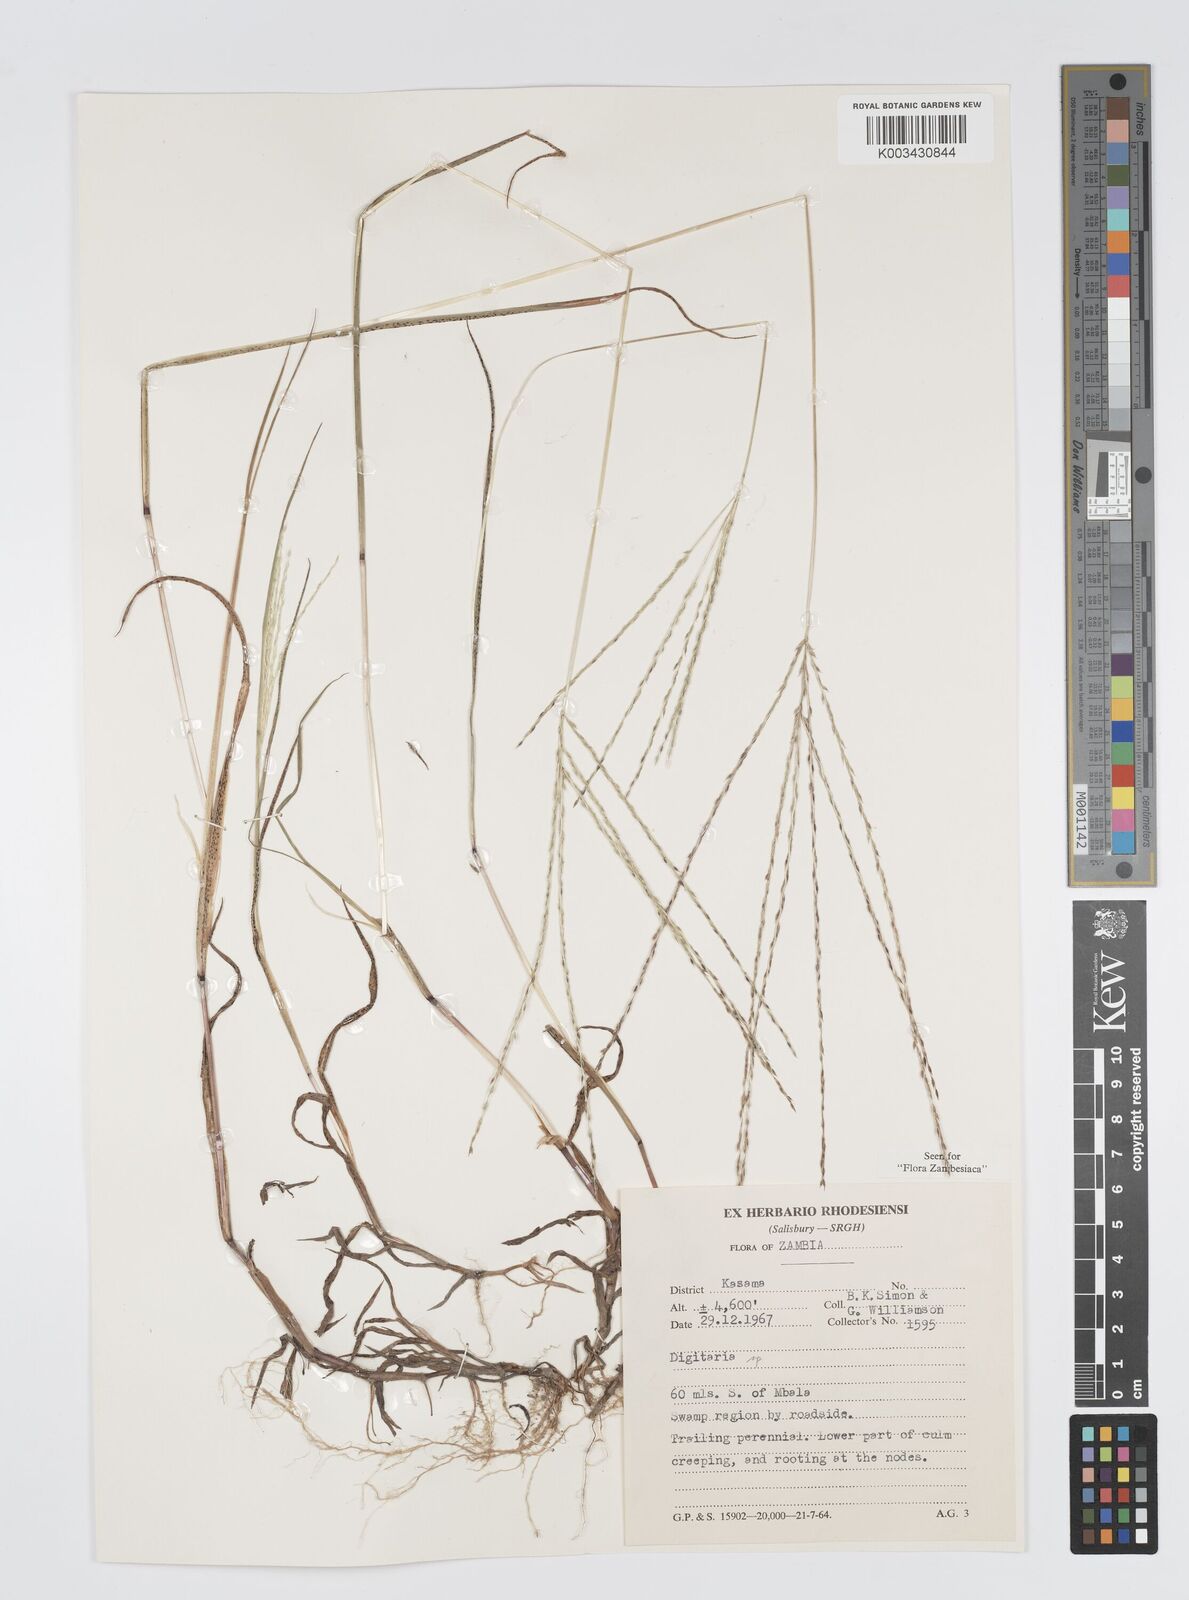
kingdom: Plantae
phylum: Tracheophyta
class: Liliopsida
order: Poales
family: Poaceae
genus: Digitaria
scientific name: Digitaria debilis
